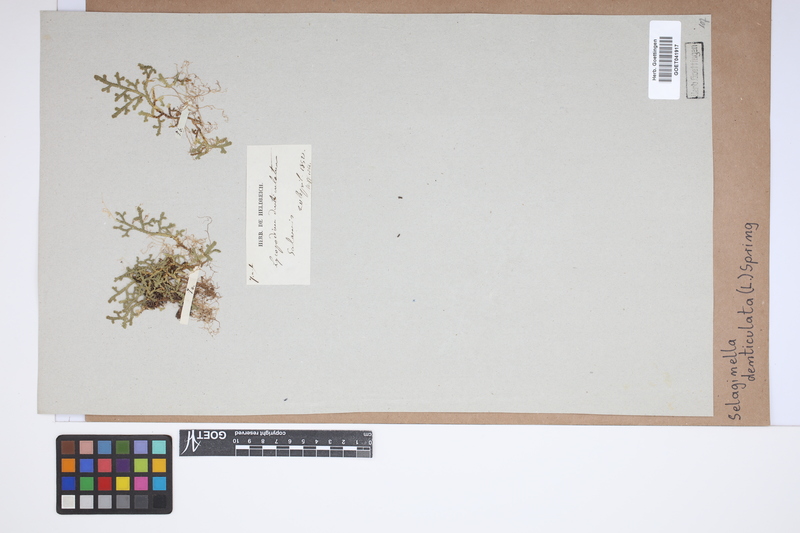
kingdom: Plantae
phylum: Tracheophyta
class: Lycopodiopsida
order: Selaginellales
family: Selaginellaceae
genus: Selaginella
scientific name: Selaginella denticulata
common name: Toothed-leaved clubmoss
